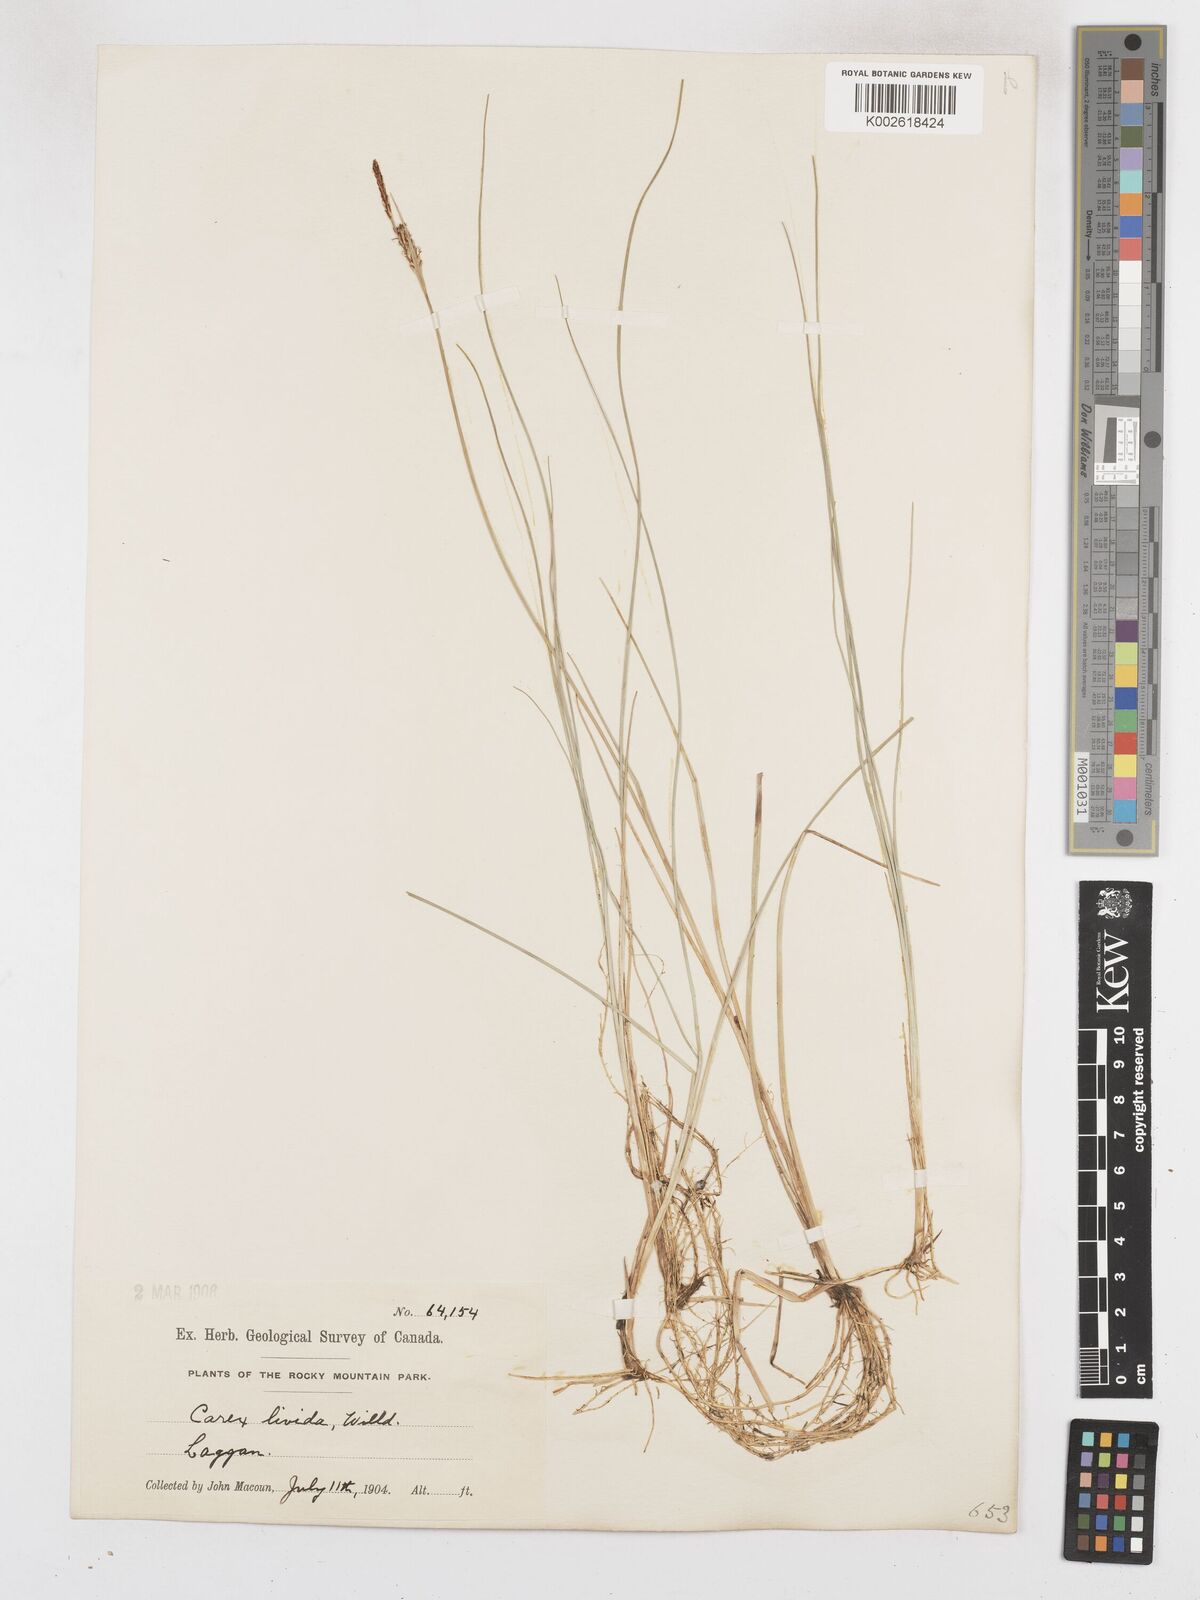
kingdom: Plantae
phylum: Tracheophyta
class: Liliopsida
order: Poales
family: Cyperaceae
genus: Carex
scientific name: Carex livida
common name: Livid sedge
